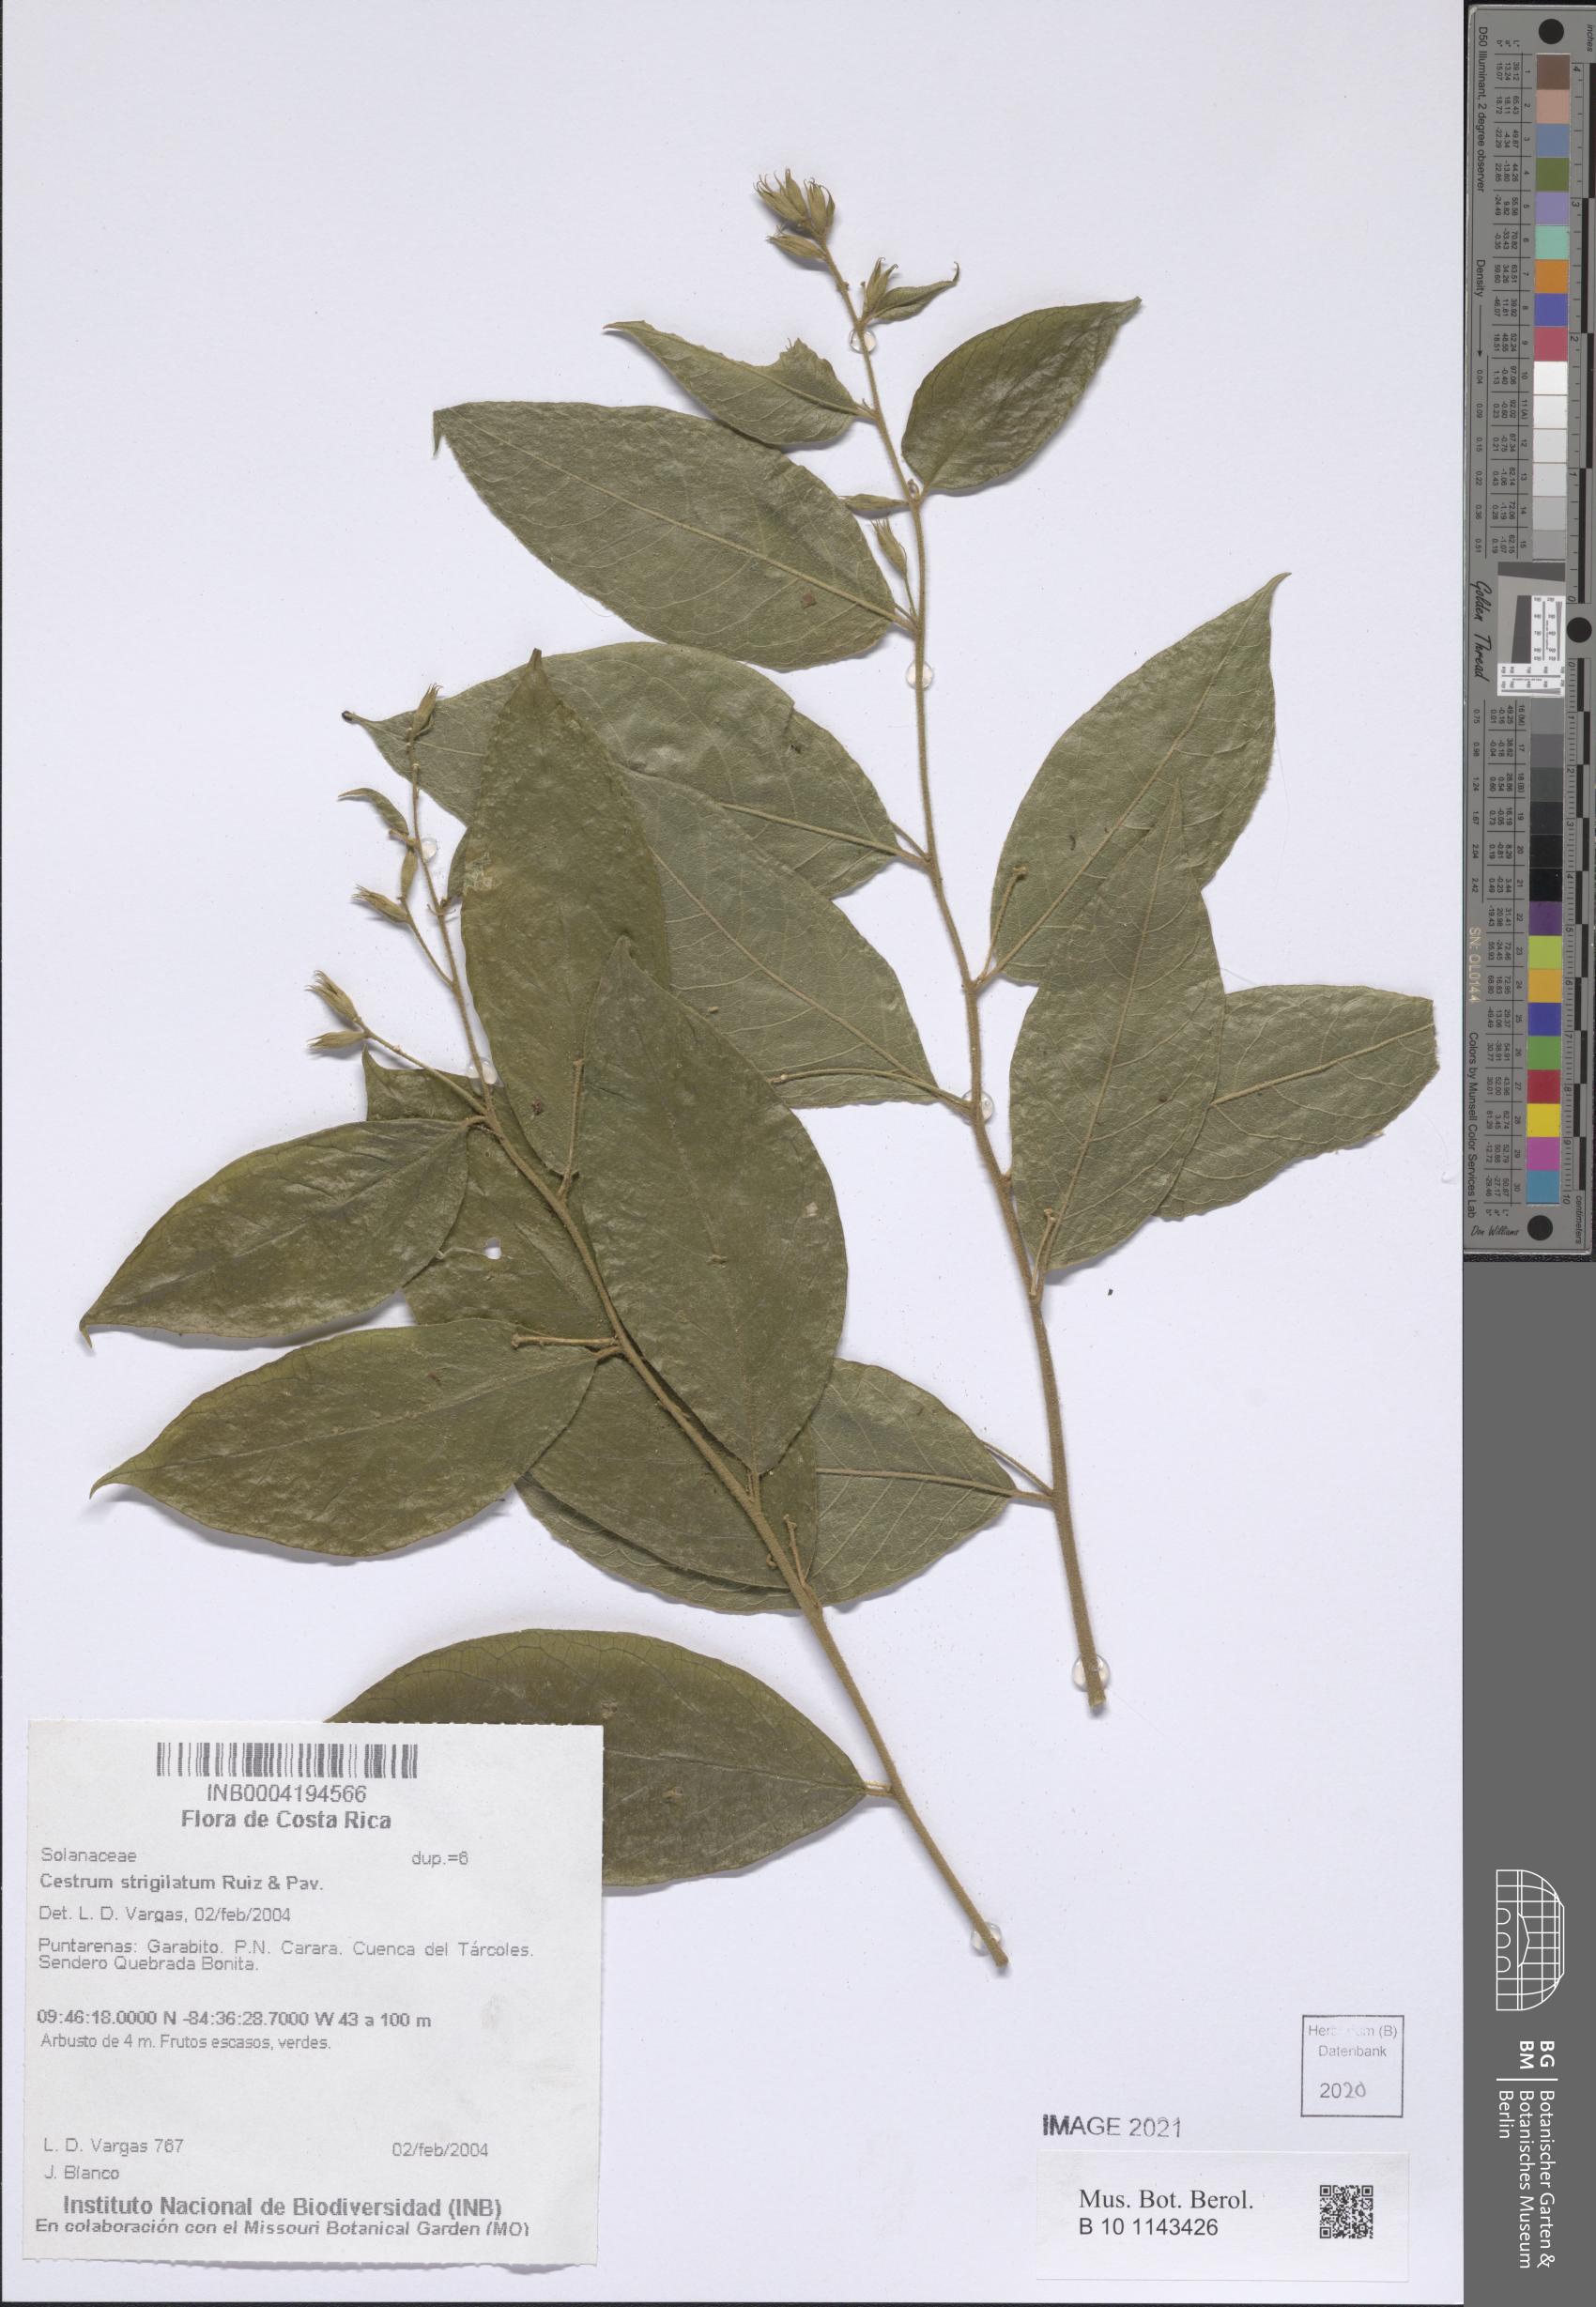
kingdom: Plantae
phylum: Tracheophyta
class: Magnoliopsida
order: Solanales
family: Solanaceae
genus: Cestrum
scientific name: Cestrum strigillatum
